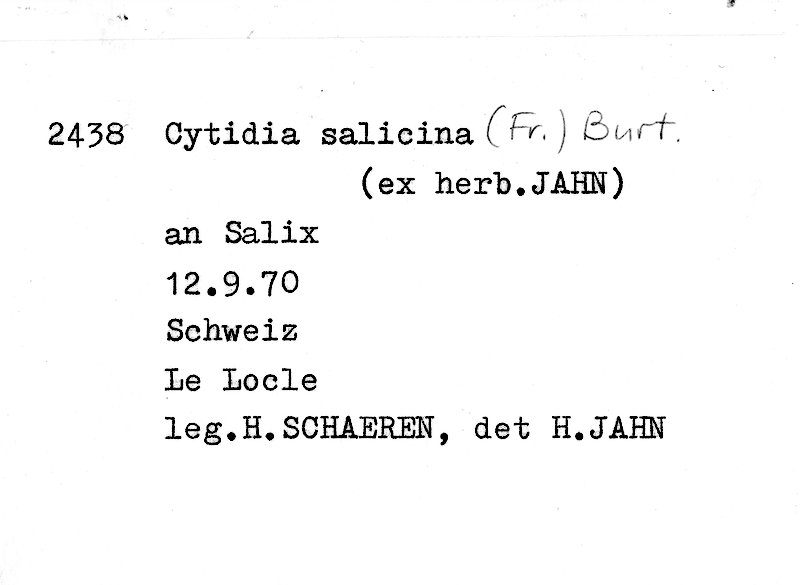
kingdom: Plantae
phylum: Tracheophyta
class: Magnoliopsida
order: Malpighiales
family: Salicaceae
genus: Salix
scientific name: Salix
